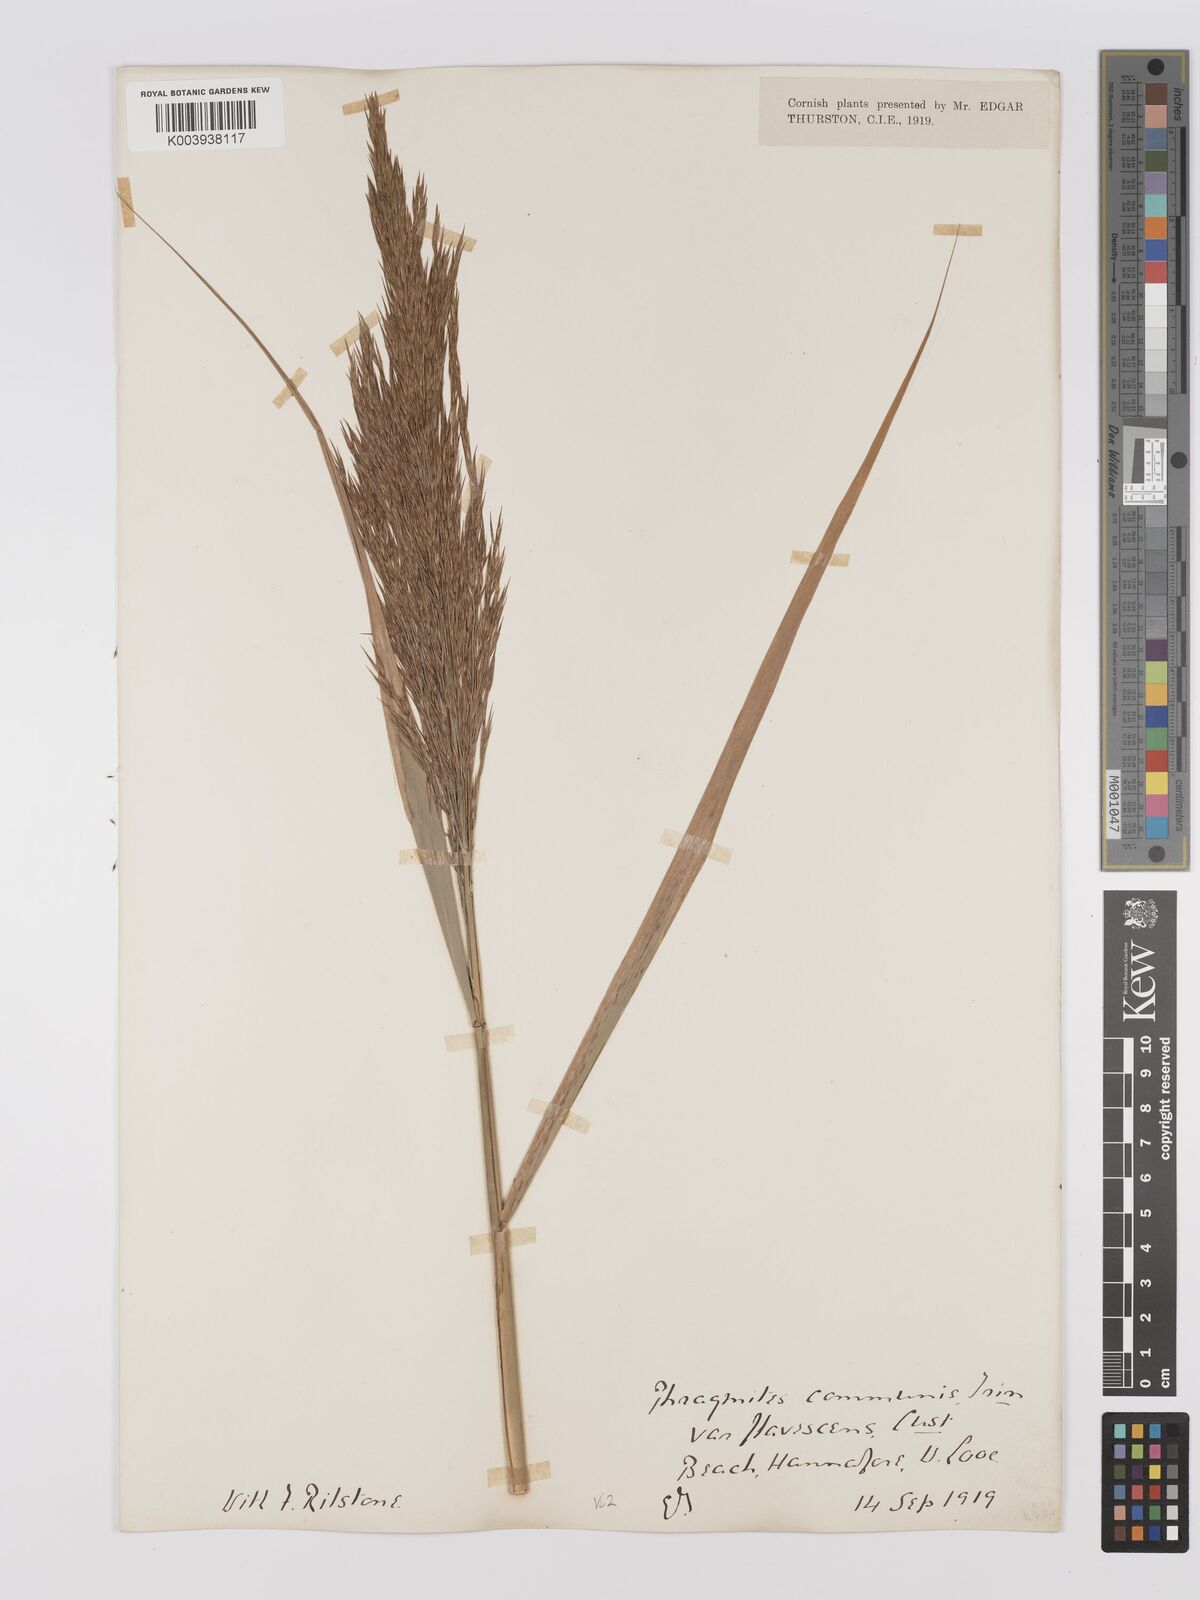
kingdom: Plantae
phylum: Tracheophyta
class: Liliopsida
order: Poales
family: Poaceae
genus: Phragmites
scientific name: Phragmites australis
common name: Common reed
